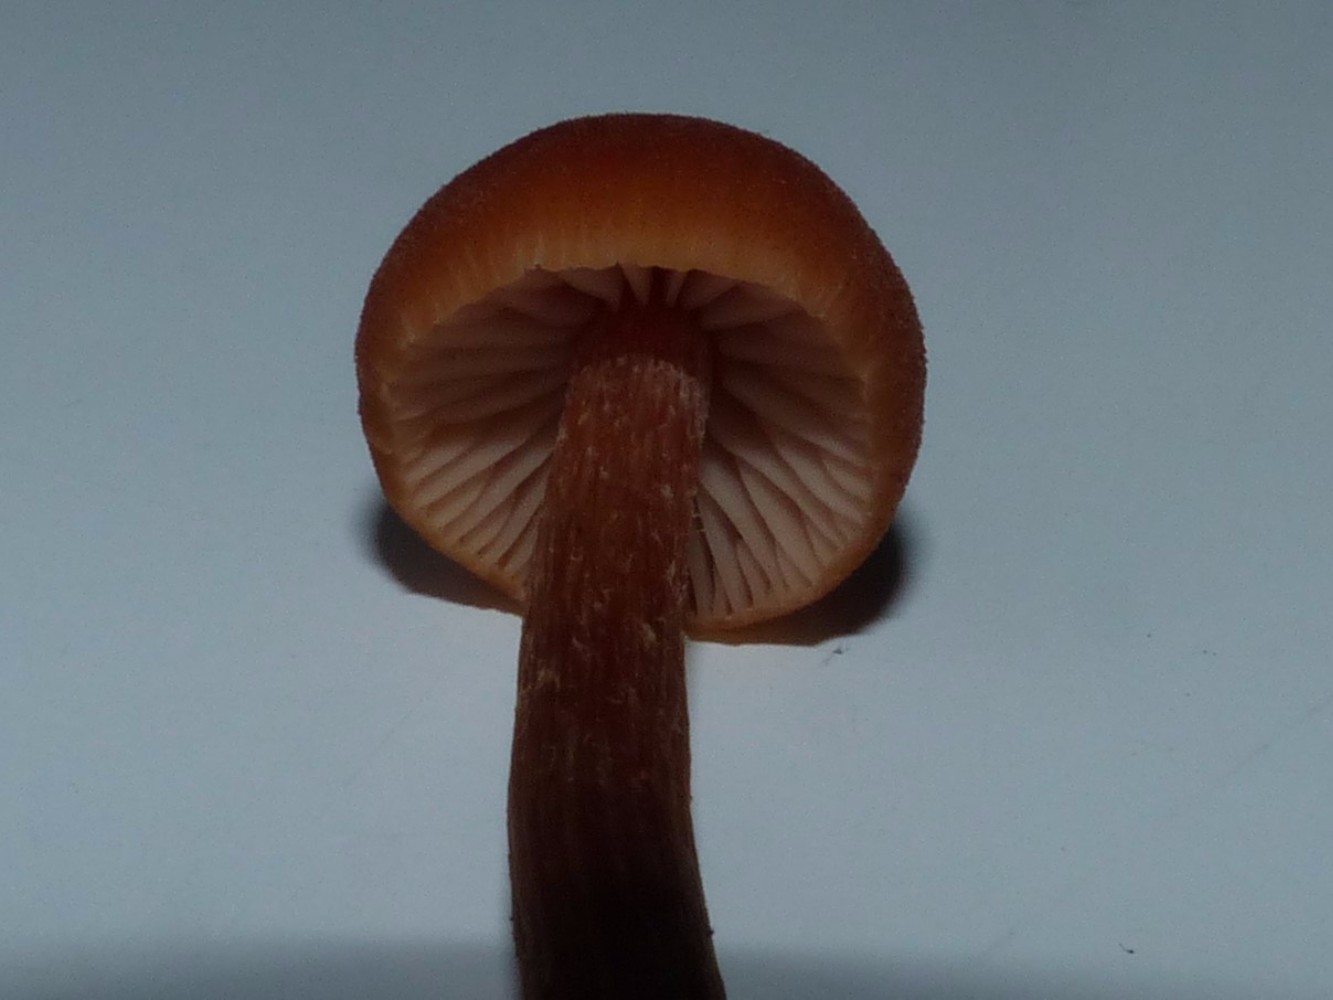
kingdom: Fungi
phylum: Basidiomycota
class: Agaricomycetes
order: Agaricales
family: Hydnangiaceae
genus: Laccaria
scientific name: Laccaria proxima
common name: stor ametysthat
